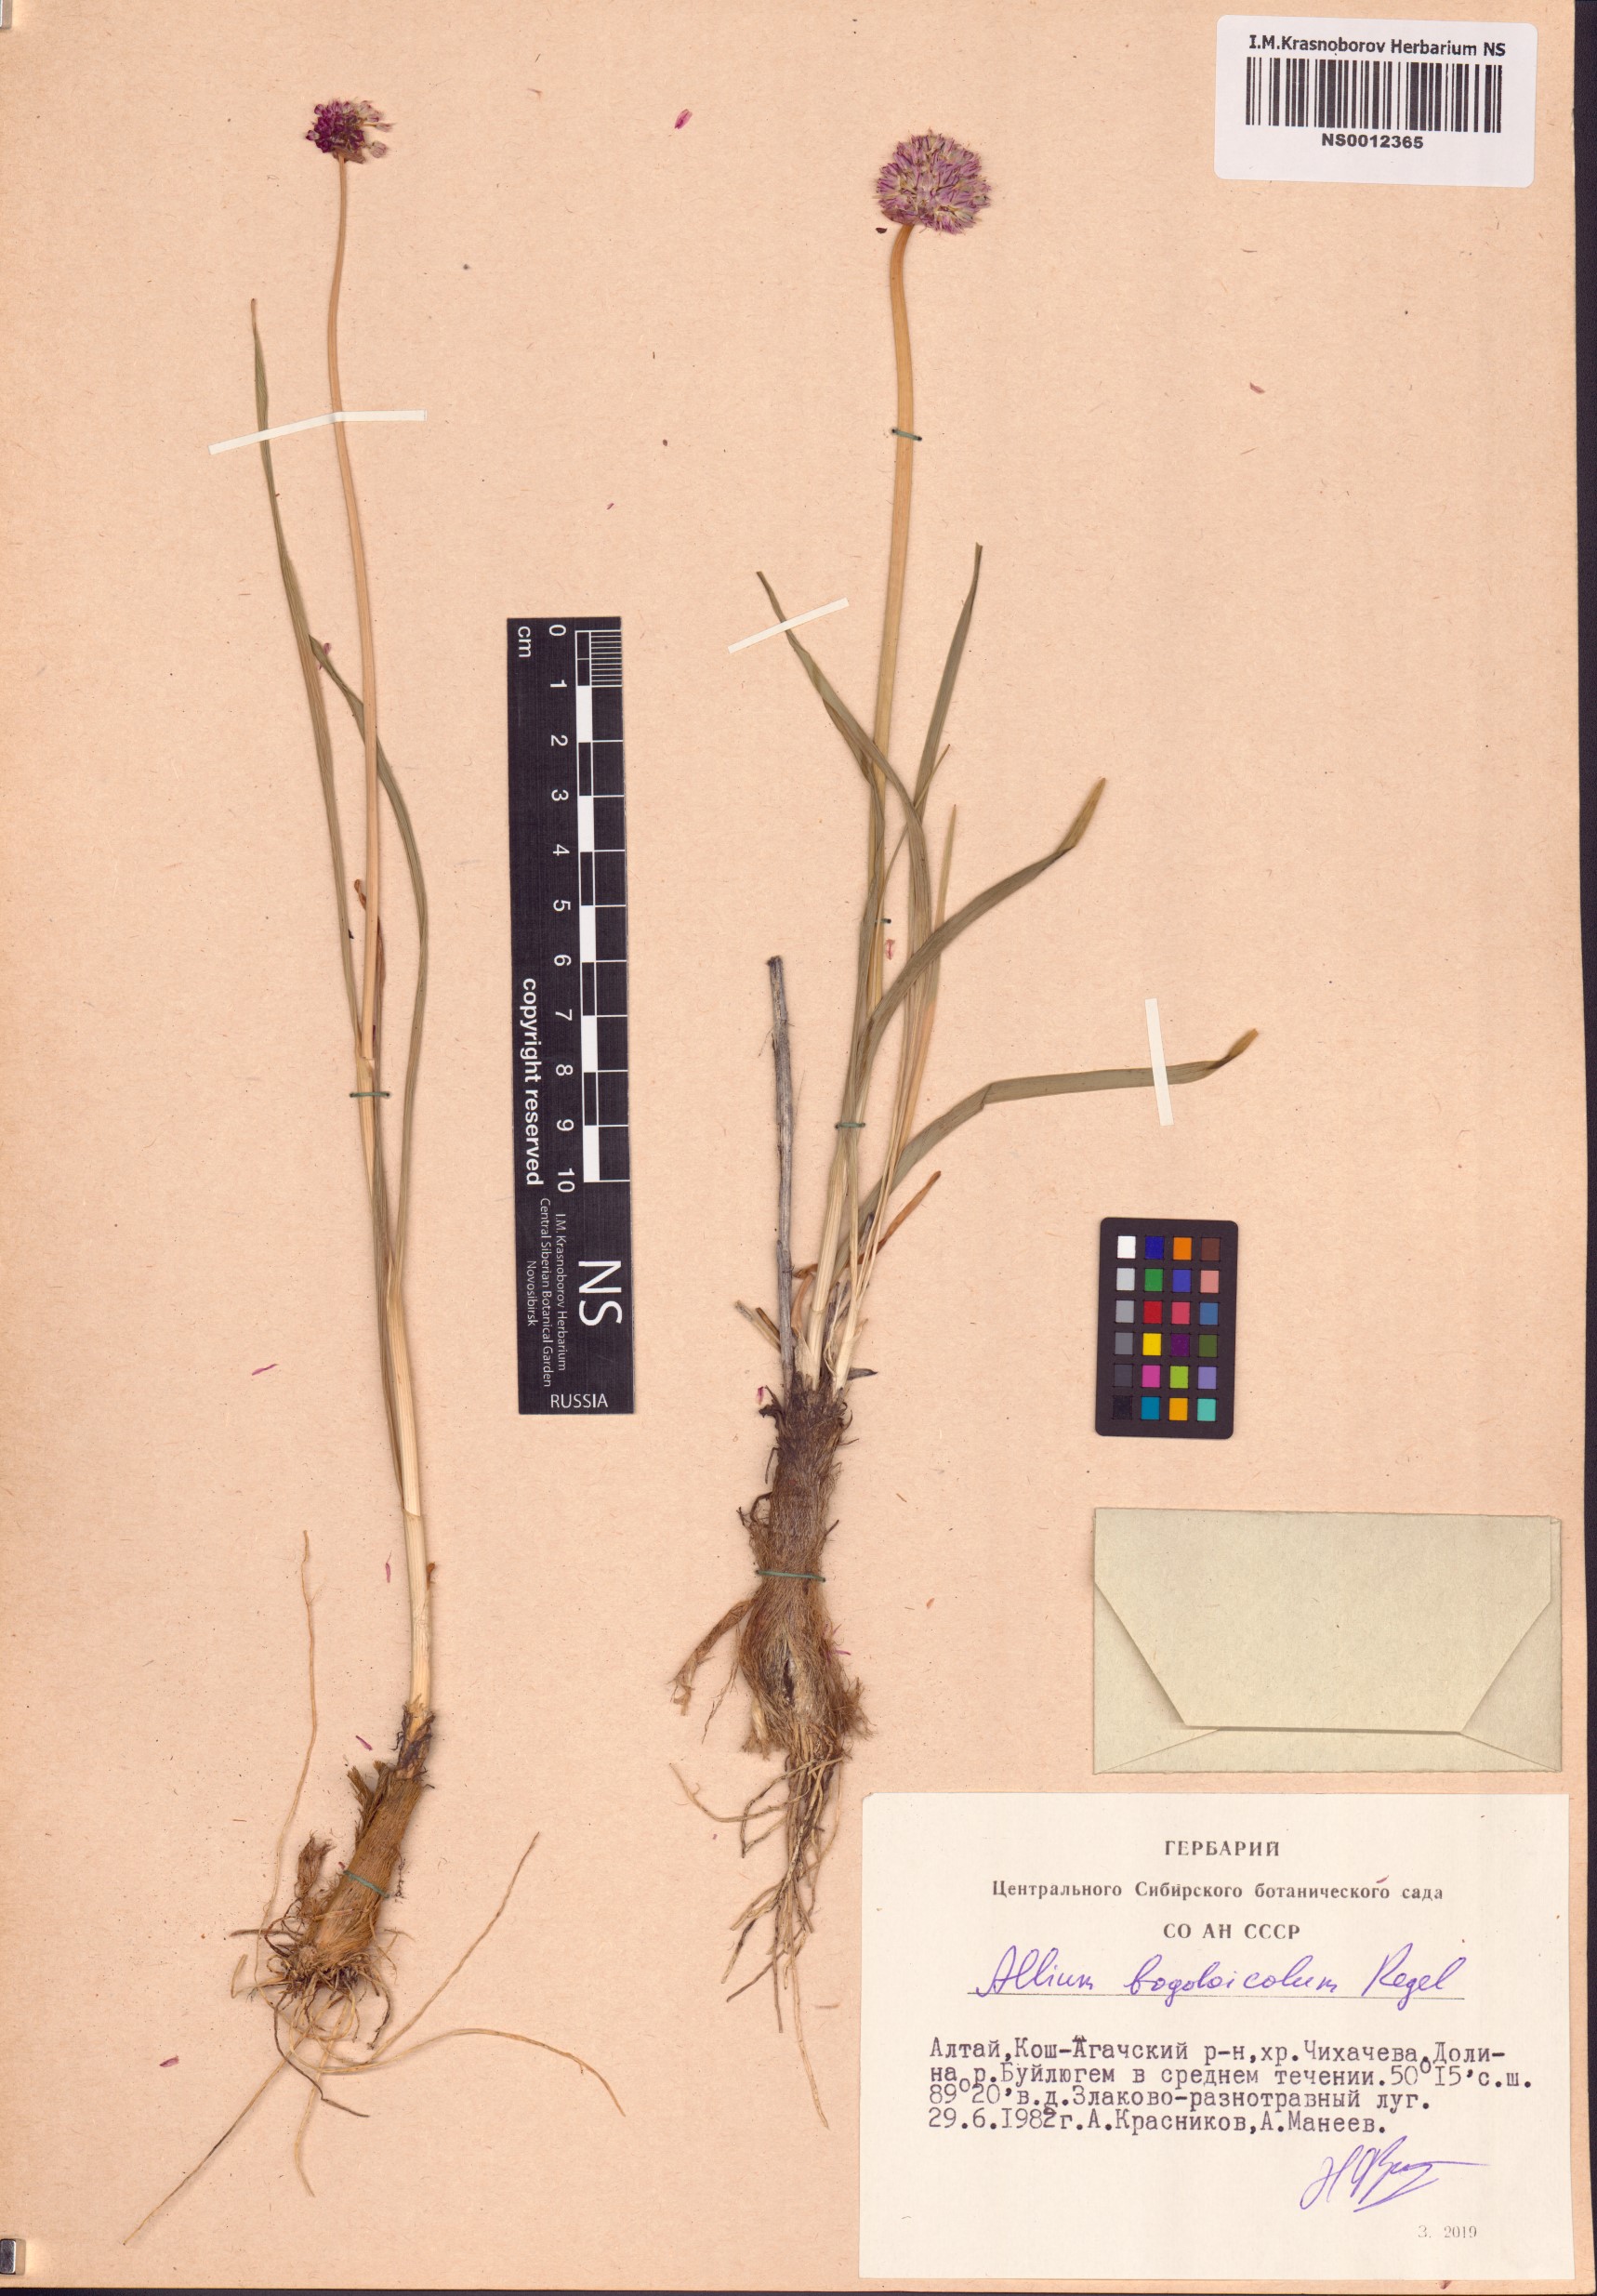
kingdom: Plantae
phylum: Tracheophyta
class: Liliopsida
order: Asparagales
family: Amaryllidaceae
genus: Allium
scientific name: Allium schrenkii
